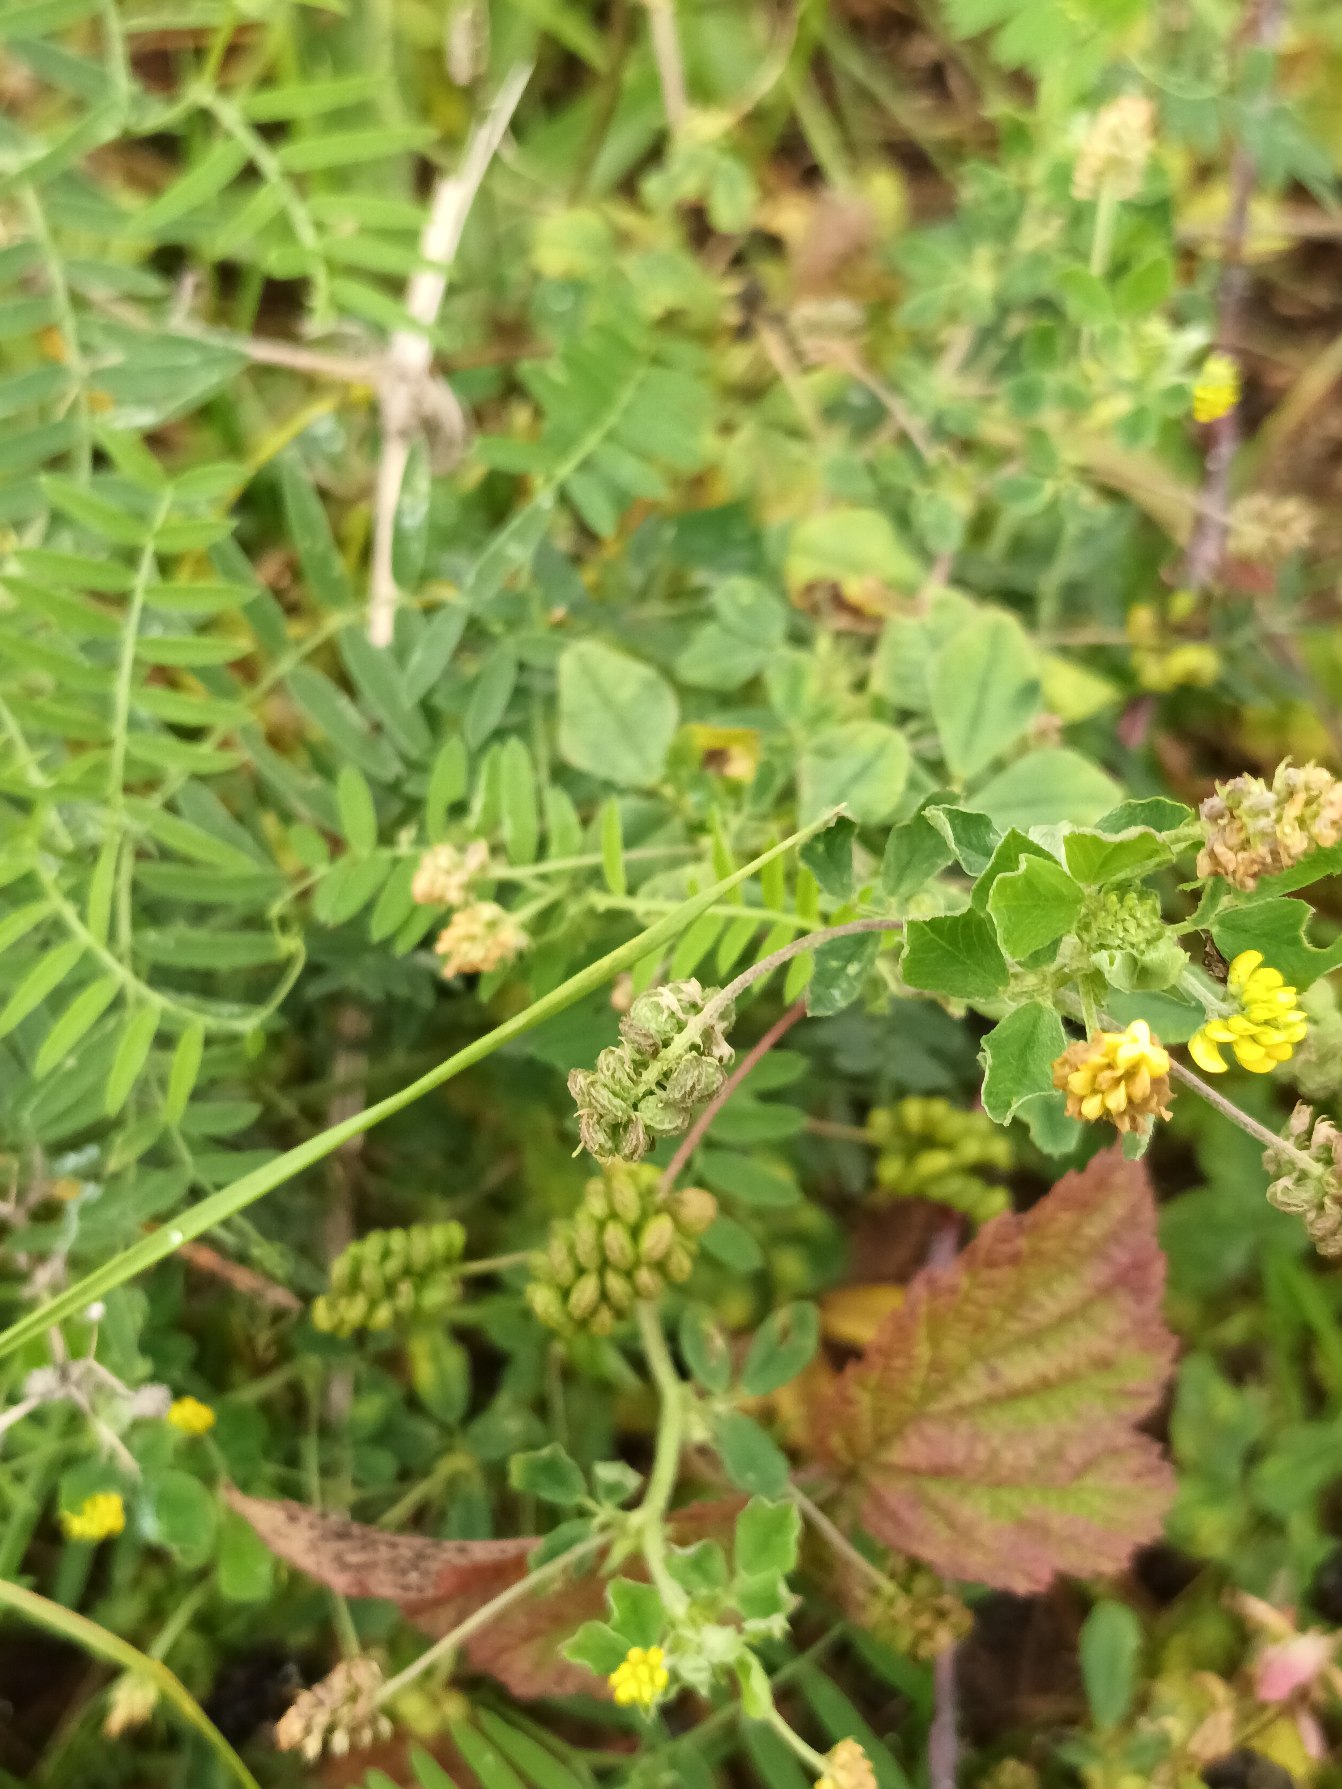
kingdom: Plantae
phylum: Tracheophyta
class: Magnoliopsida
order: Fabales
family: Fabaceae
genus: Medicago
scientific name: Medicago lupulina
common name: Humle-sneglebælg
